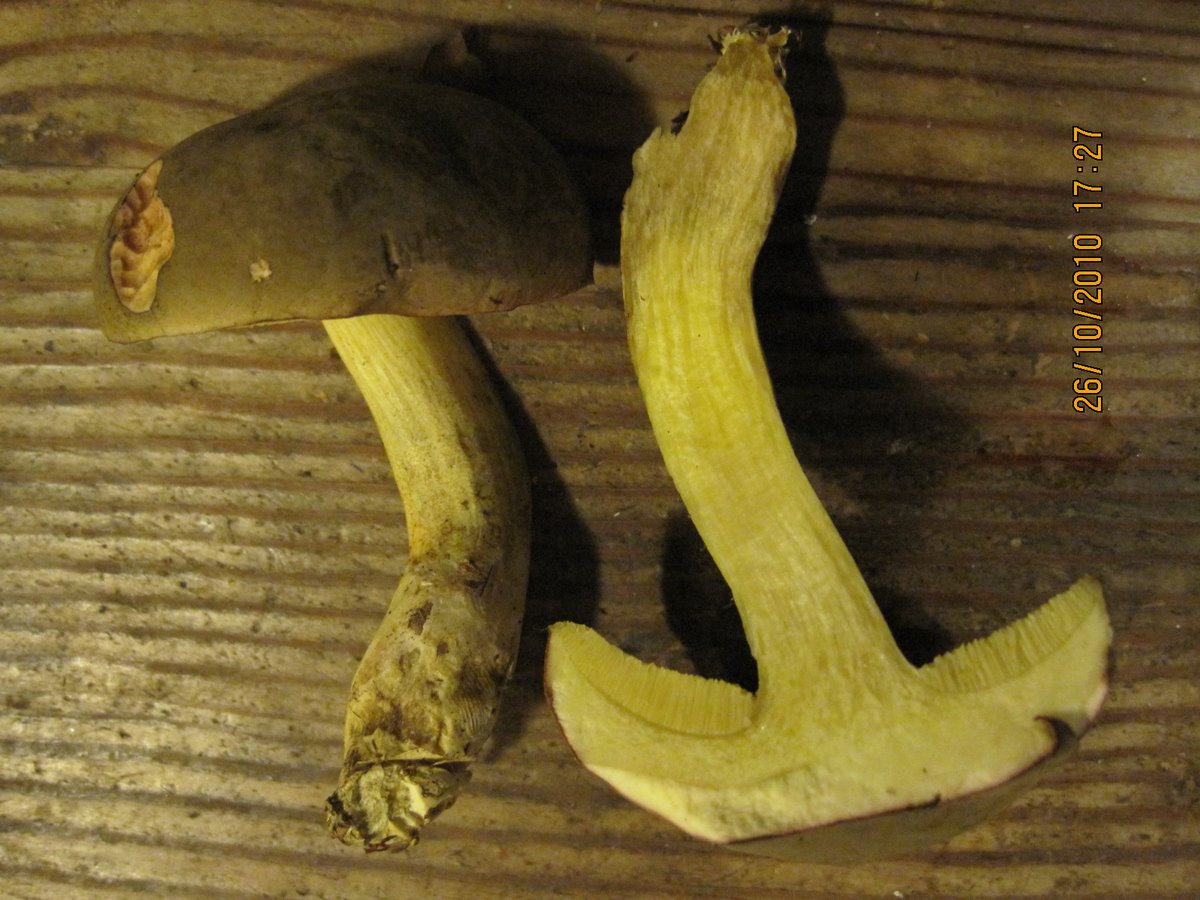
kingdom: Fungi
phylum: Basidiomycota
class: Agaricomycetes
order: Boletales
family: Boletaceae
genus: Xerocomus
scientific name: Xerocomus subtomentosus
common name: filtet rørhat
